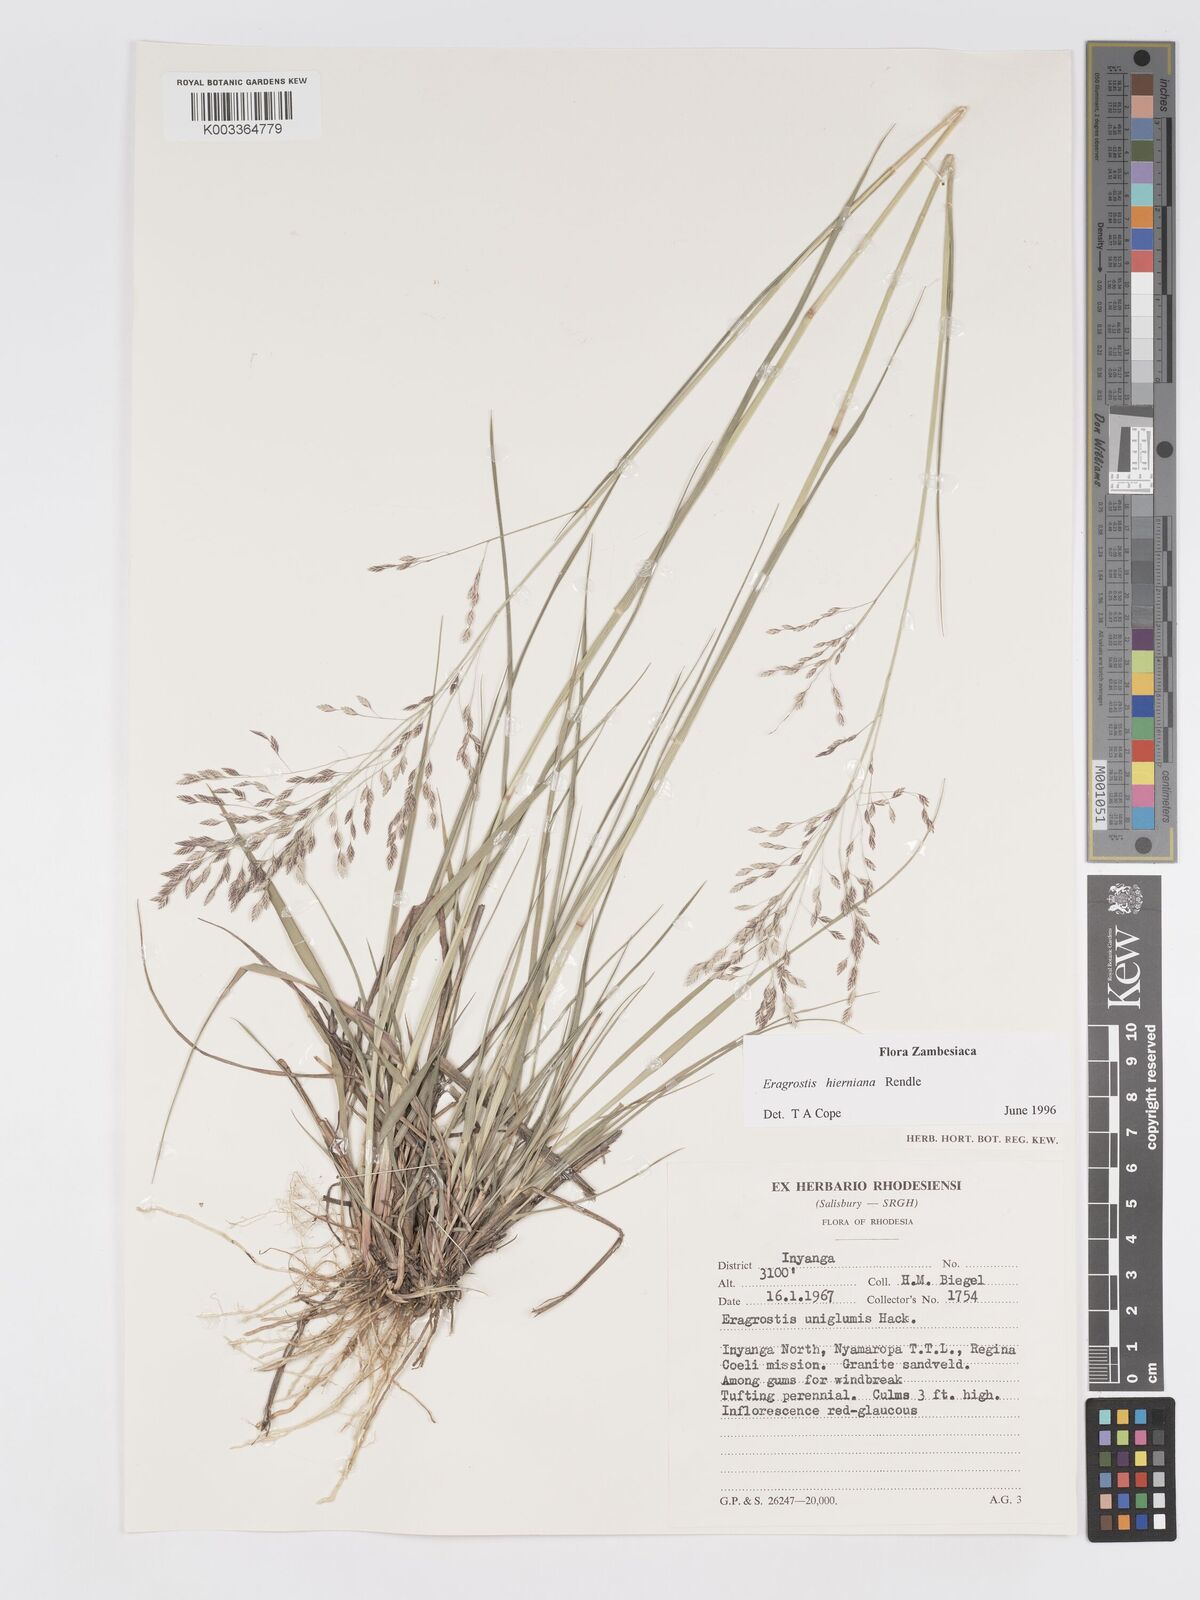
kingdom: Plantae
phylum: Tracheophyta
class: Liliopsida
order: Poales
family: Poaceae
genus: Eragrostis
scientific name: Eragrostis hierniana
